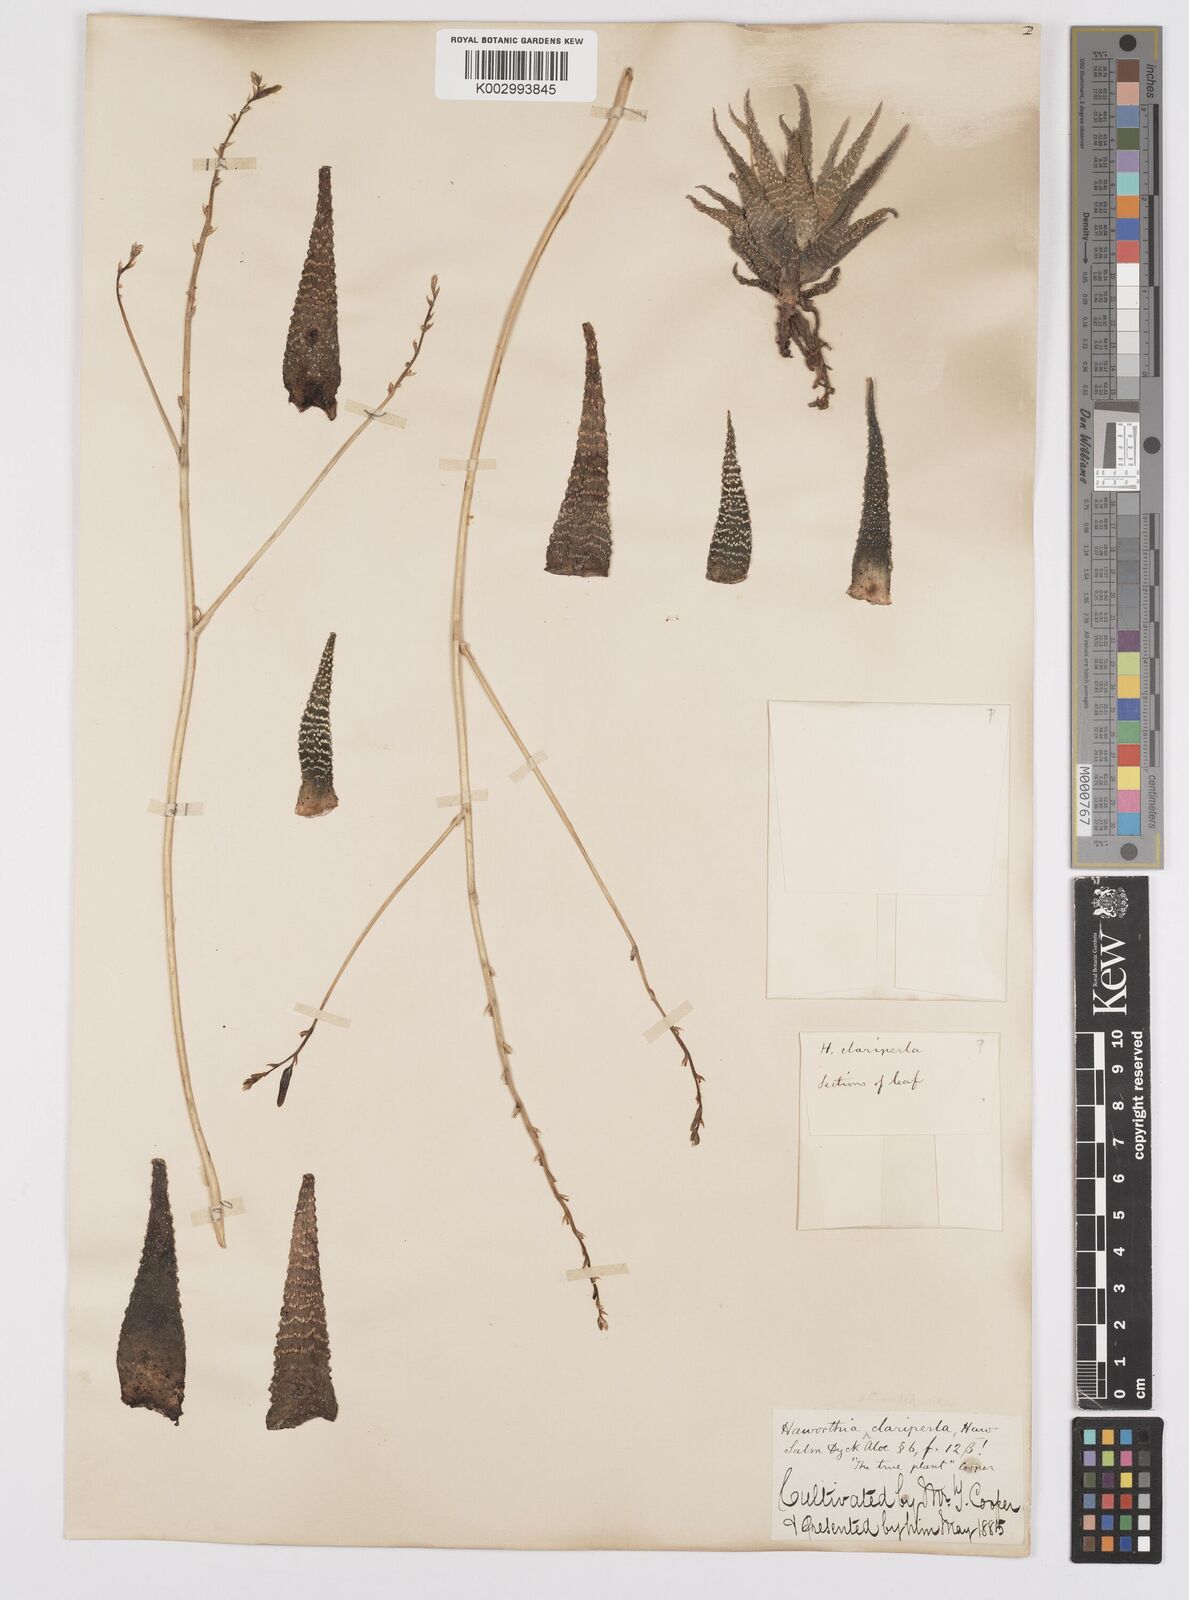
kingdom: Plantae
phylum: Tracheophyta
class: Liliopsida
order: Asparagales
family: Asphodelaceae
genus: Haworthiopsis
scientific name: Haworthiopsis attenuata
